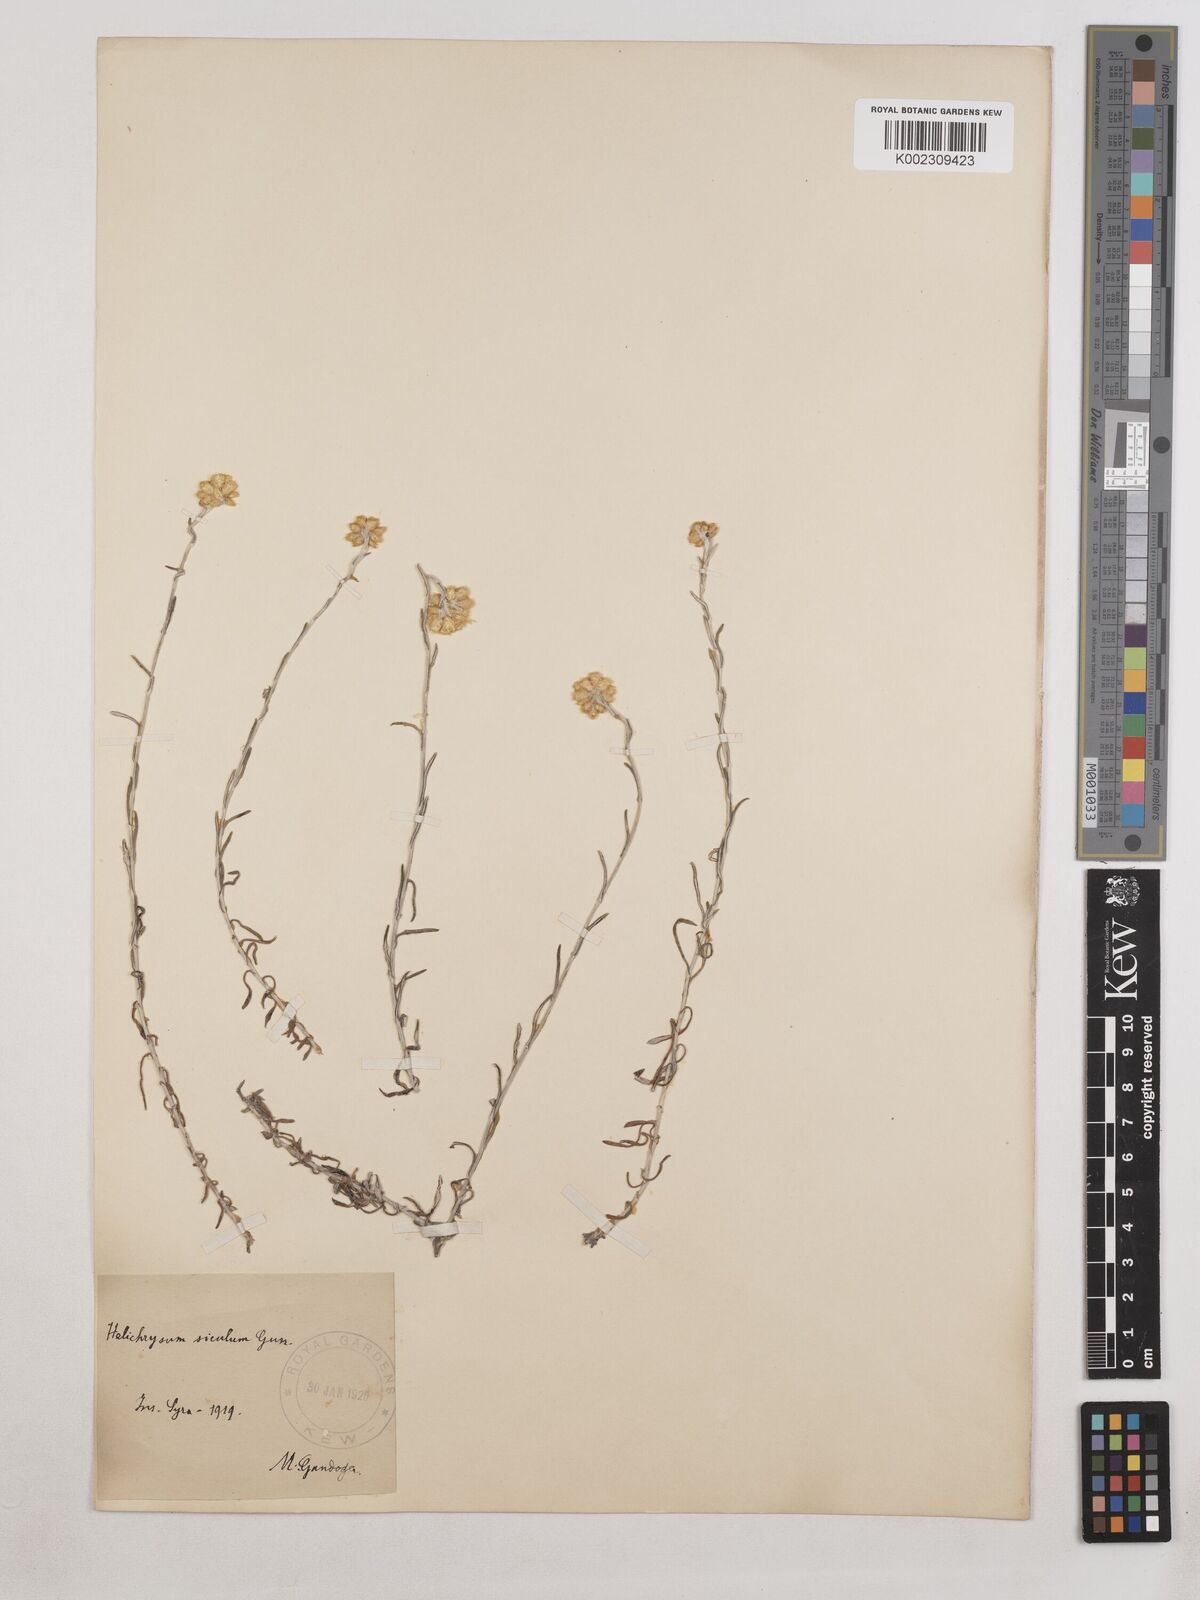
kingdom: Plantae
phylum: Tracheophyta
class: Magnoliopsida
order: Asterales
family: Asteraceae
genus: Helichrysum
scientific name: Helichrysum stoechas
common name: Goldilocks
